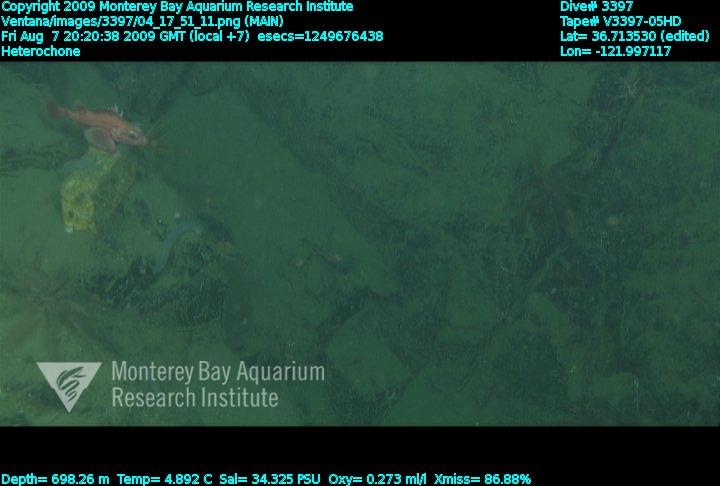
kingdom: Animalia
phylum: Porifera
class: Hexactinellida
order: Sceptrulophora
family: Aphrocallistidae
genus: Heterochone
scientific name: Heterochone
